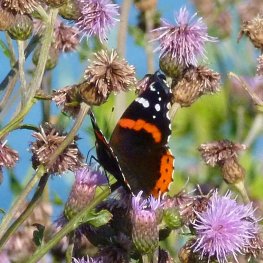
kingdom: Animalia
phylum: Arthropoda
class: Insecta
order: Lepidoptera
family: Nymphalidae
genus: Vanessa
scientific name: Vanessa atalanta
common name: Red Admiral
